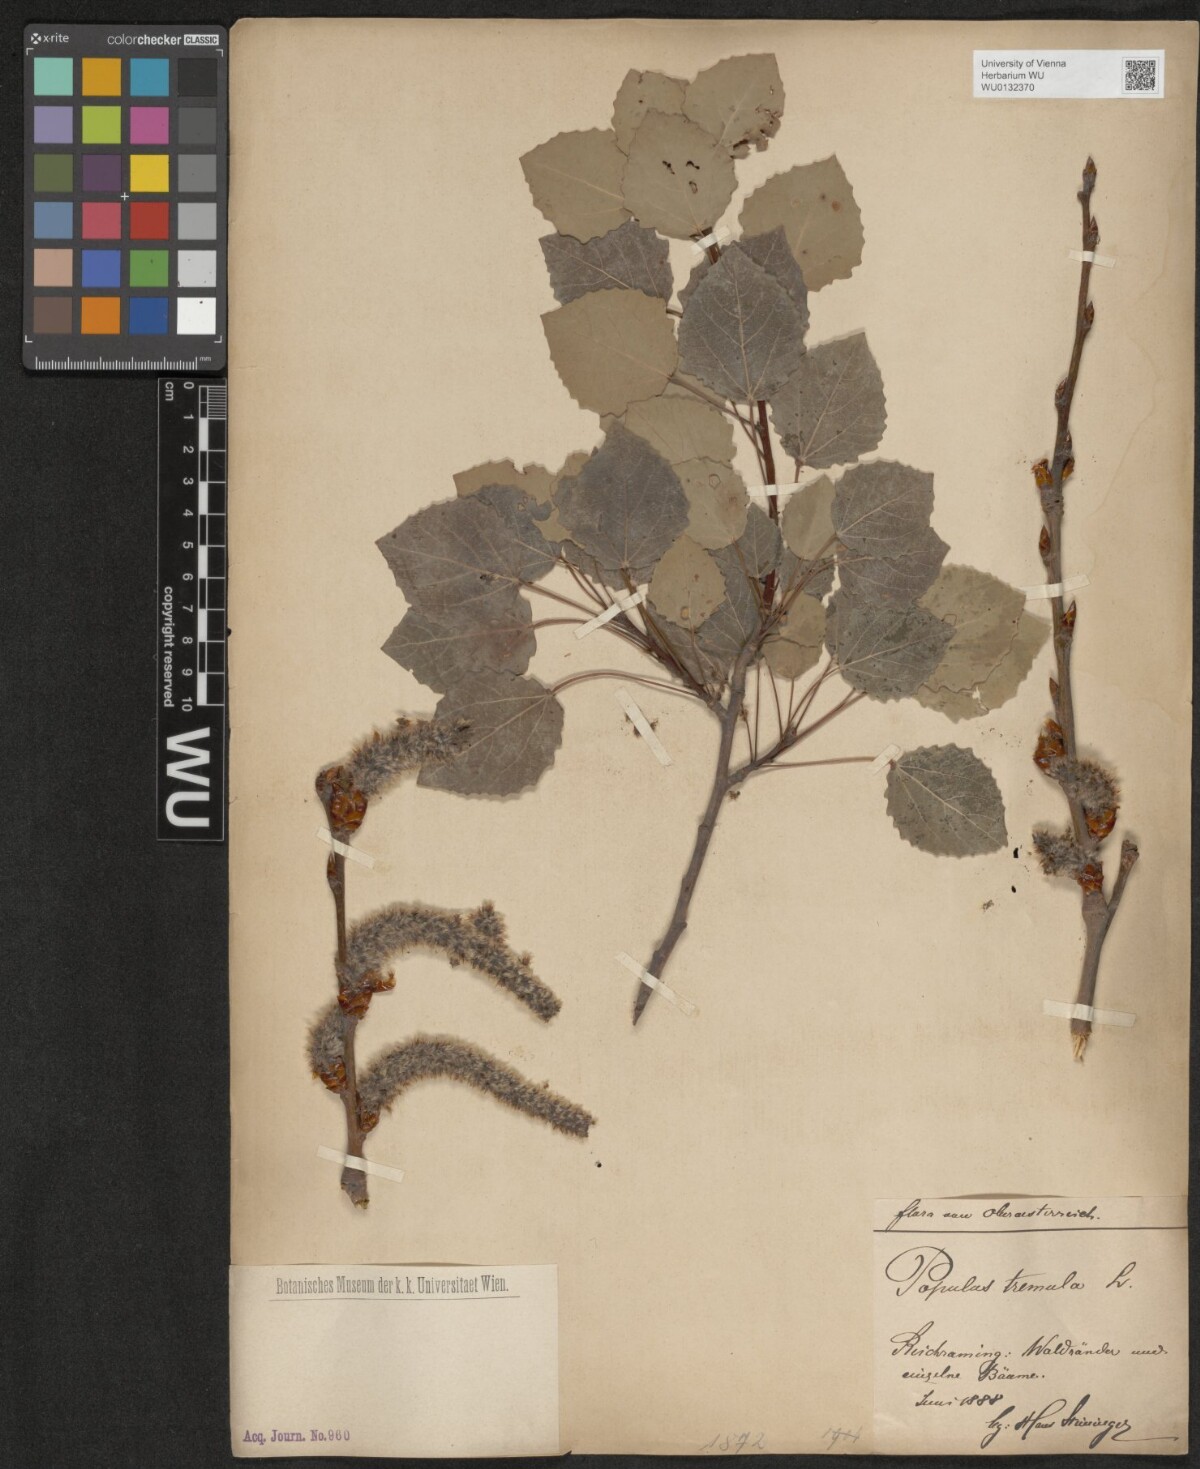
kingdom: Plantae
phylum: Tracheophyta
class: Magnoliopsida
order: Malpighiales
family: Salicaceae
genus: Populus
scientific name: Populus tremula
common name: European aspen
